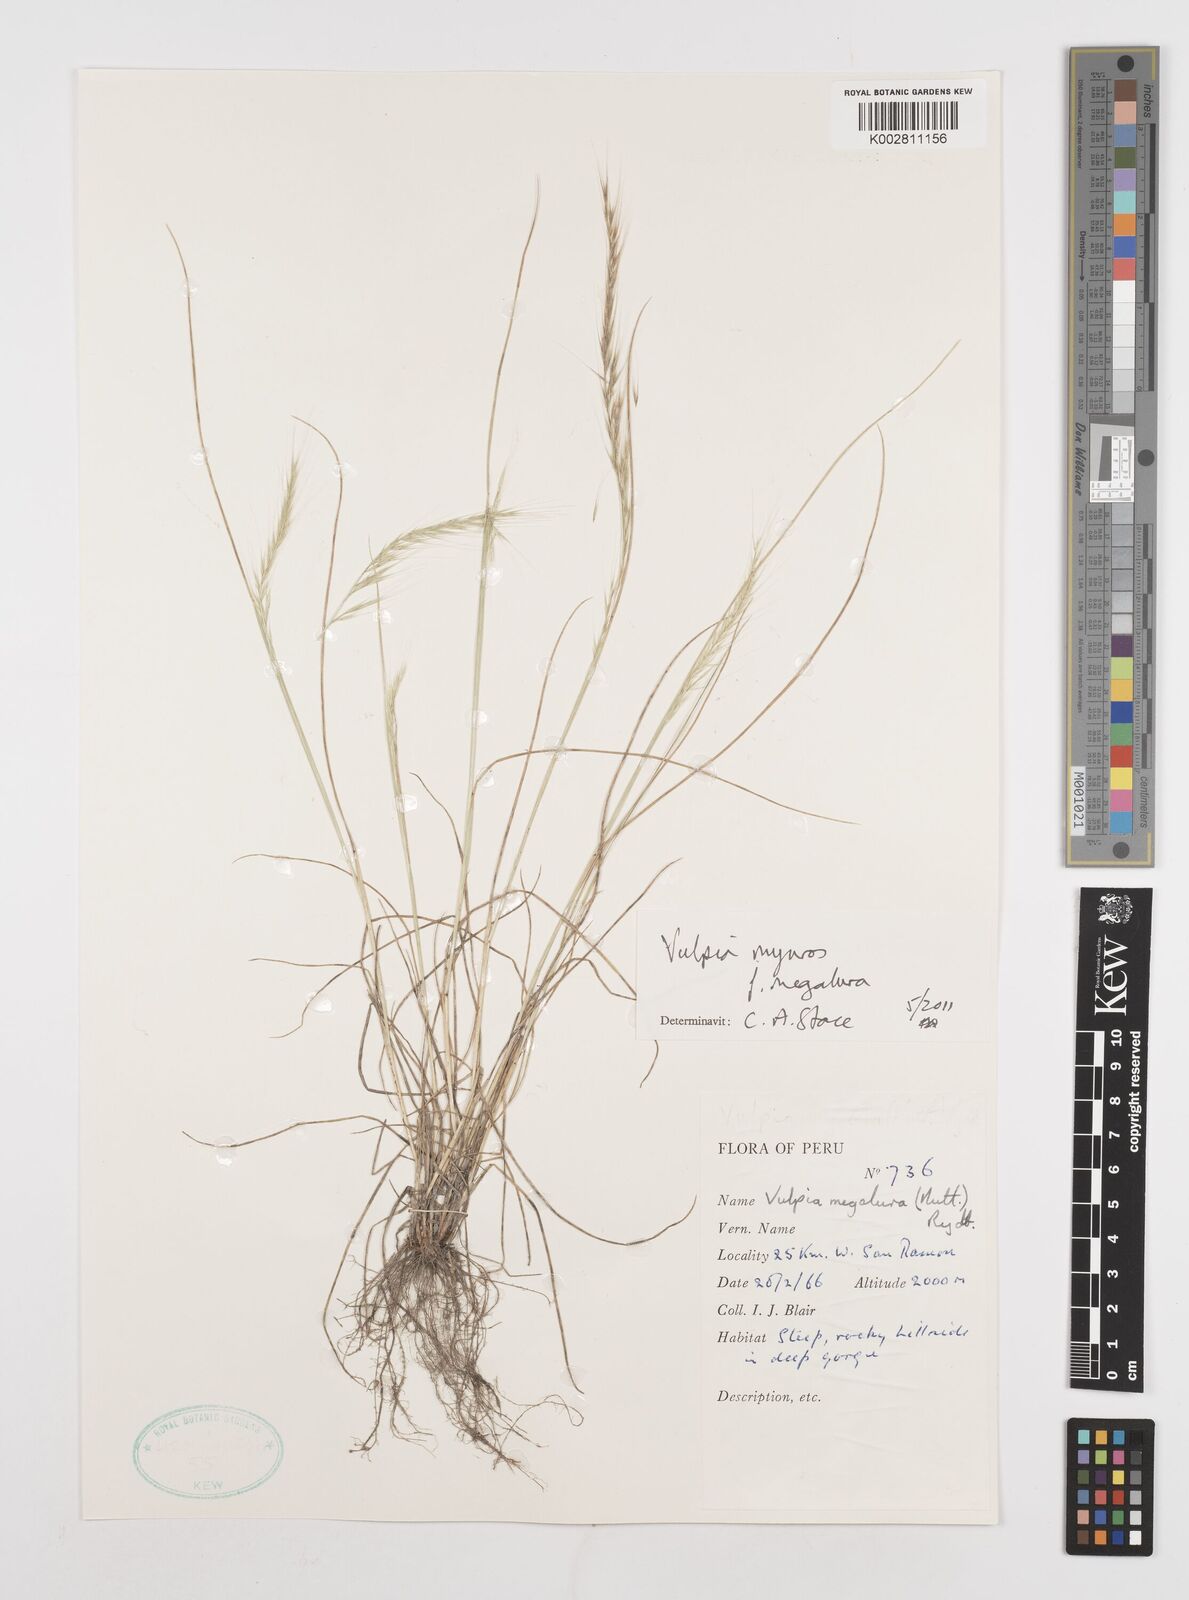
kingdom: Plantae
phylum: Tracheophyta
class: Liliopsida
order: Poales
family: Poaceae
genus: Festuca
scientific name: Festuca myuros
